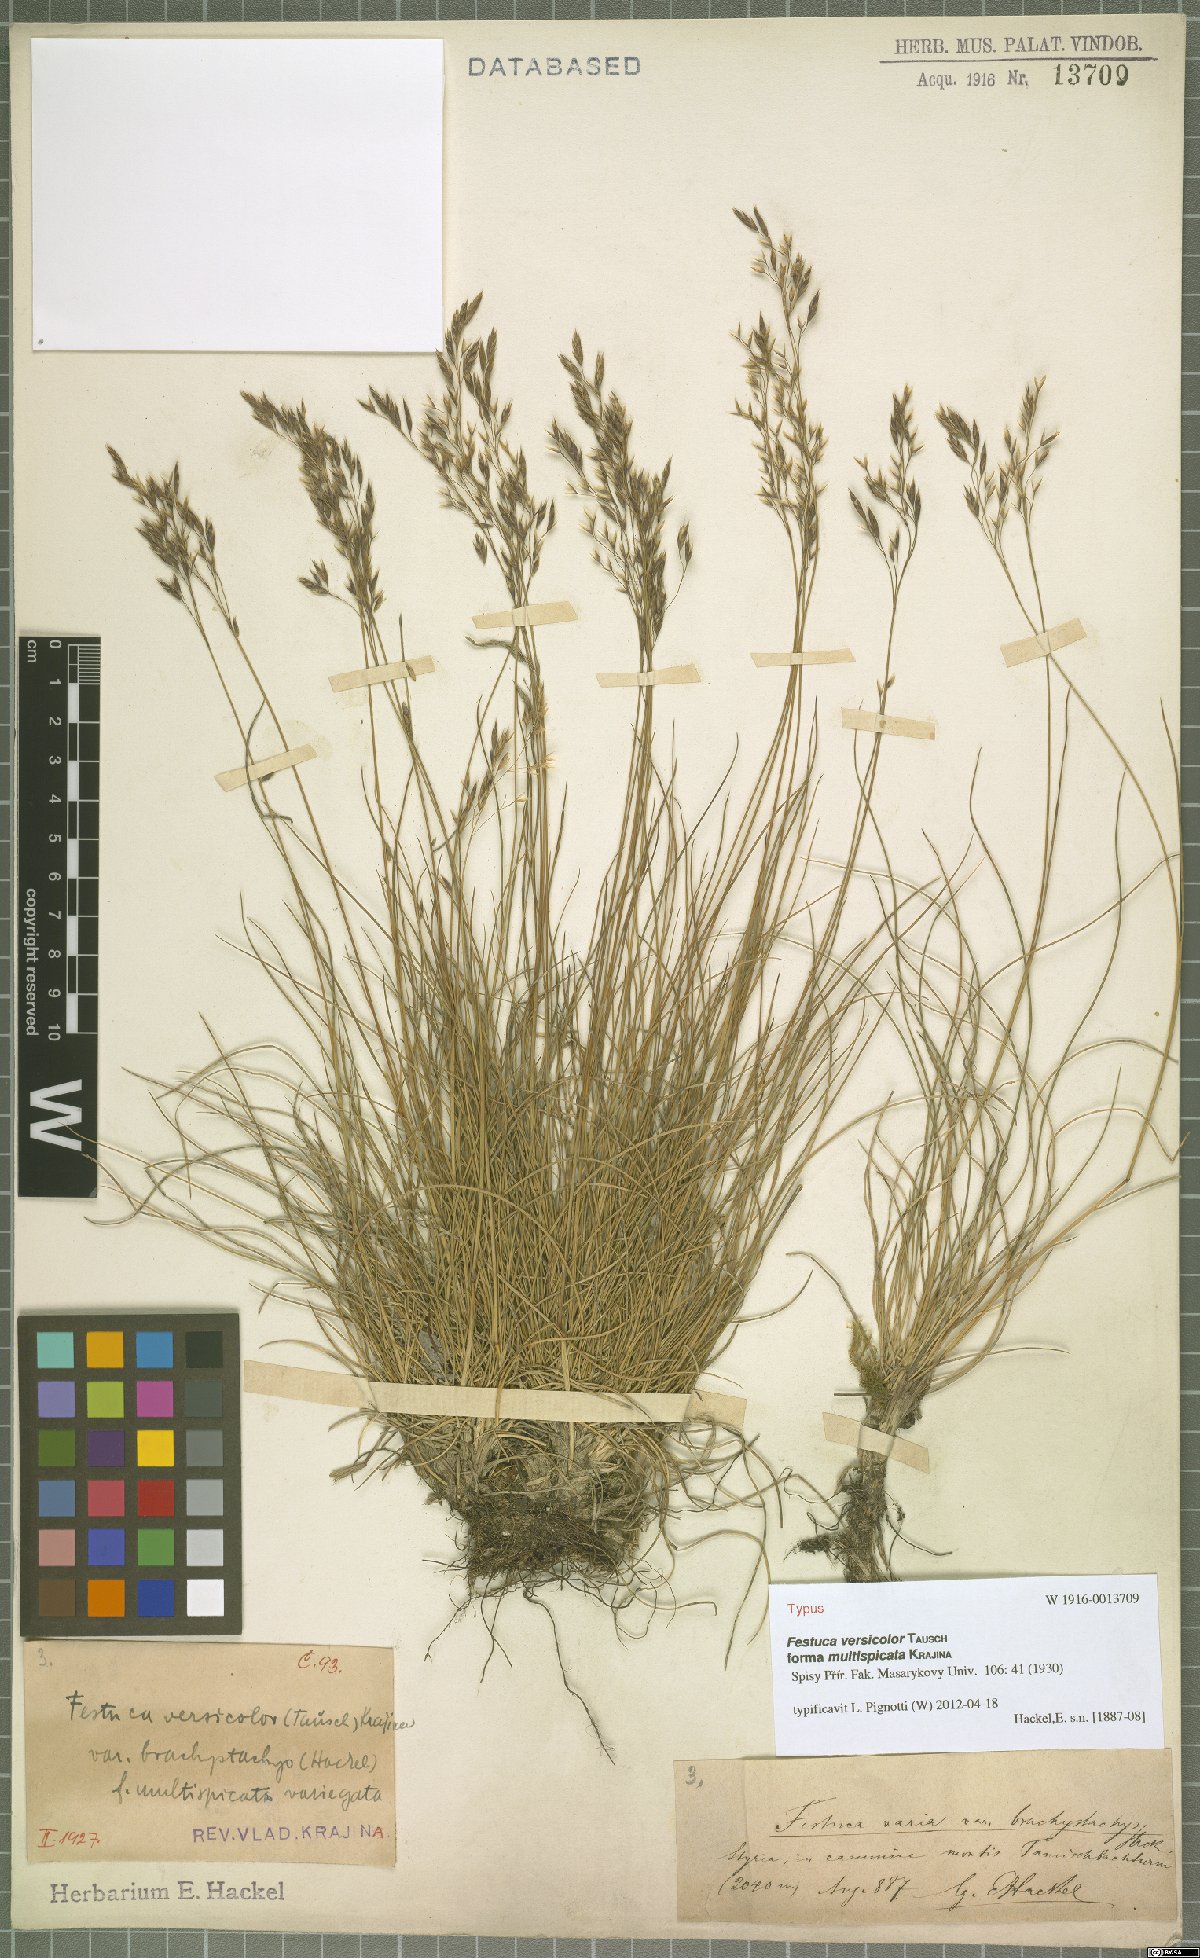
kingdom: Plantae
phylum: Tracheophyta
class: Liliopsida
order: Poales
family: Poaceae
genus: Festuca
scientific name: Festuca versicolor
